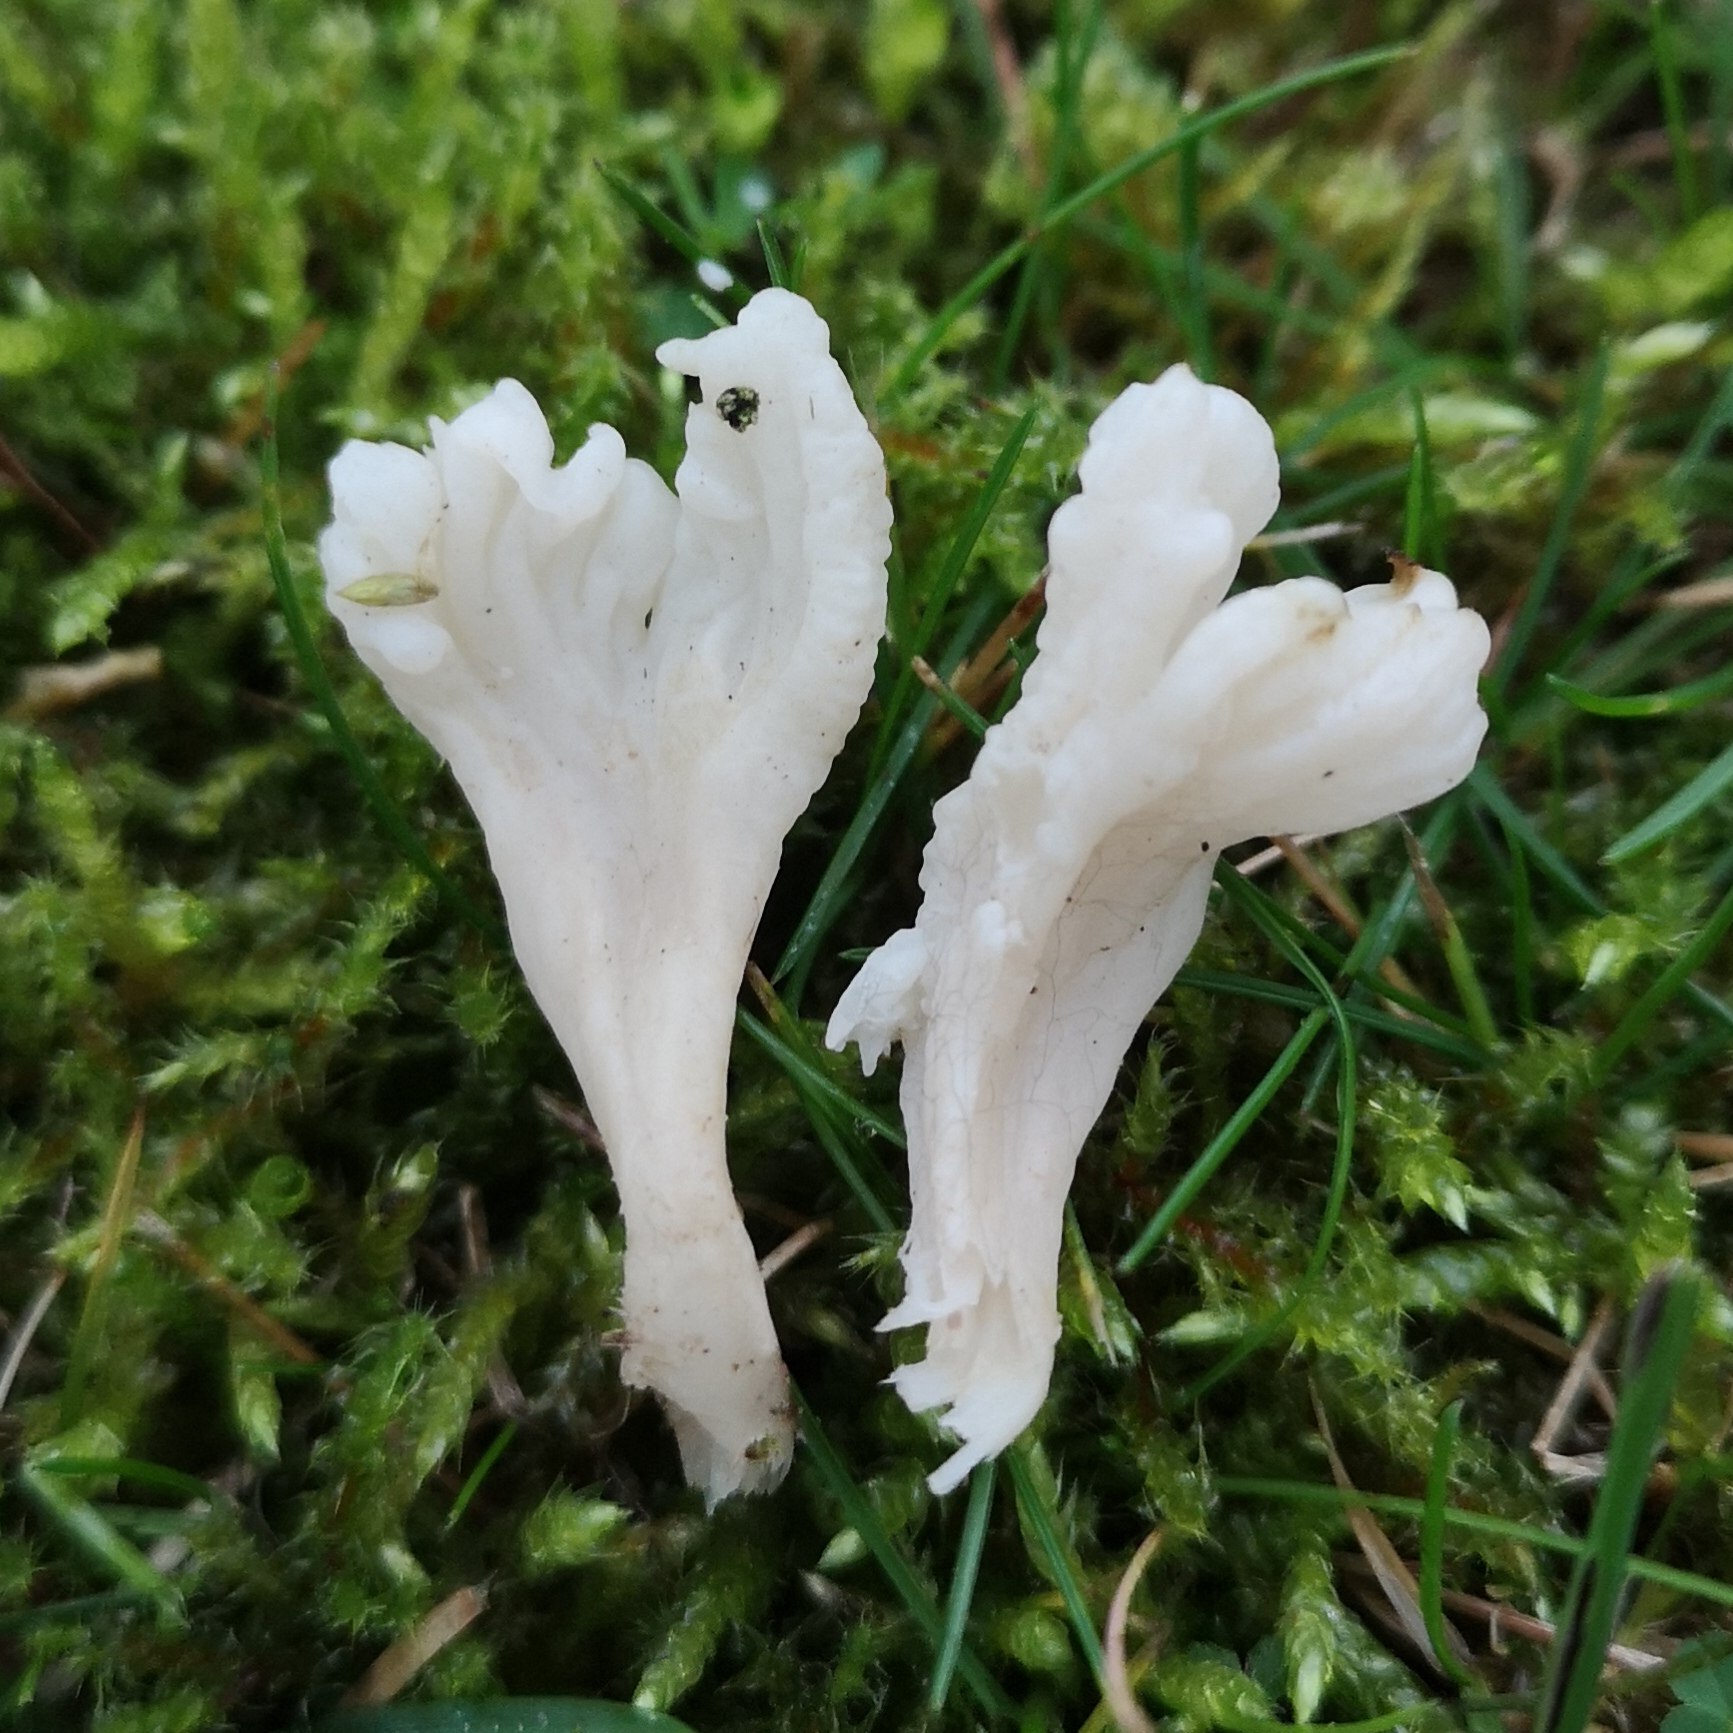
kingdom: Fungi
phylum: Basidiomycota
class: Agaricomycetes
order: Cantharellales
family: Hydnaceae
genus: Clavulina
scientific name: Clavulina rugosa
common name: Rynket troldkølle
